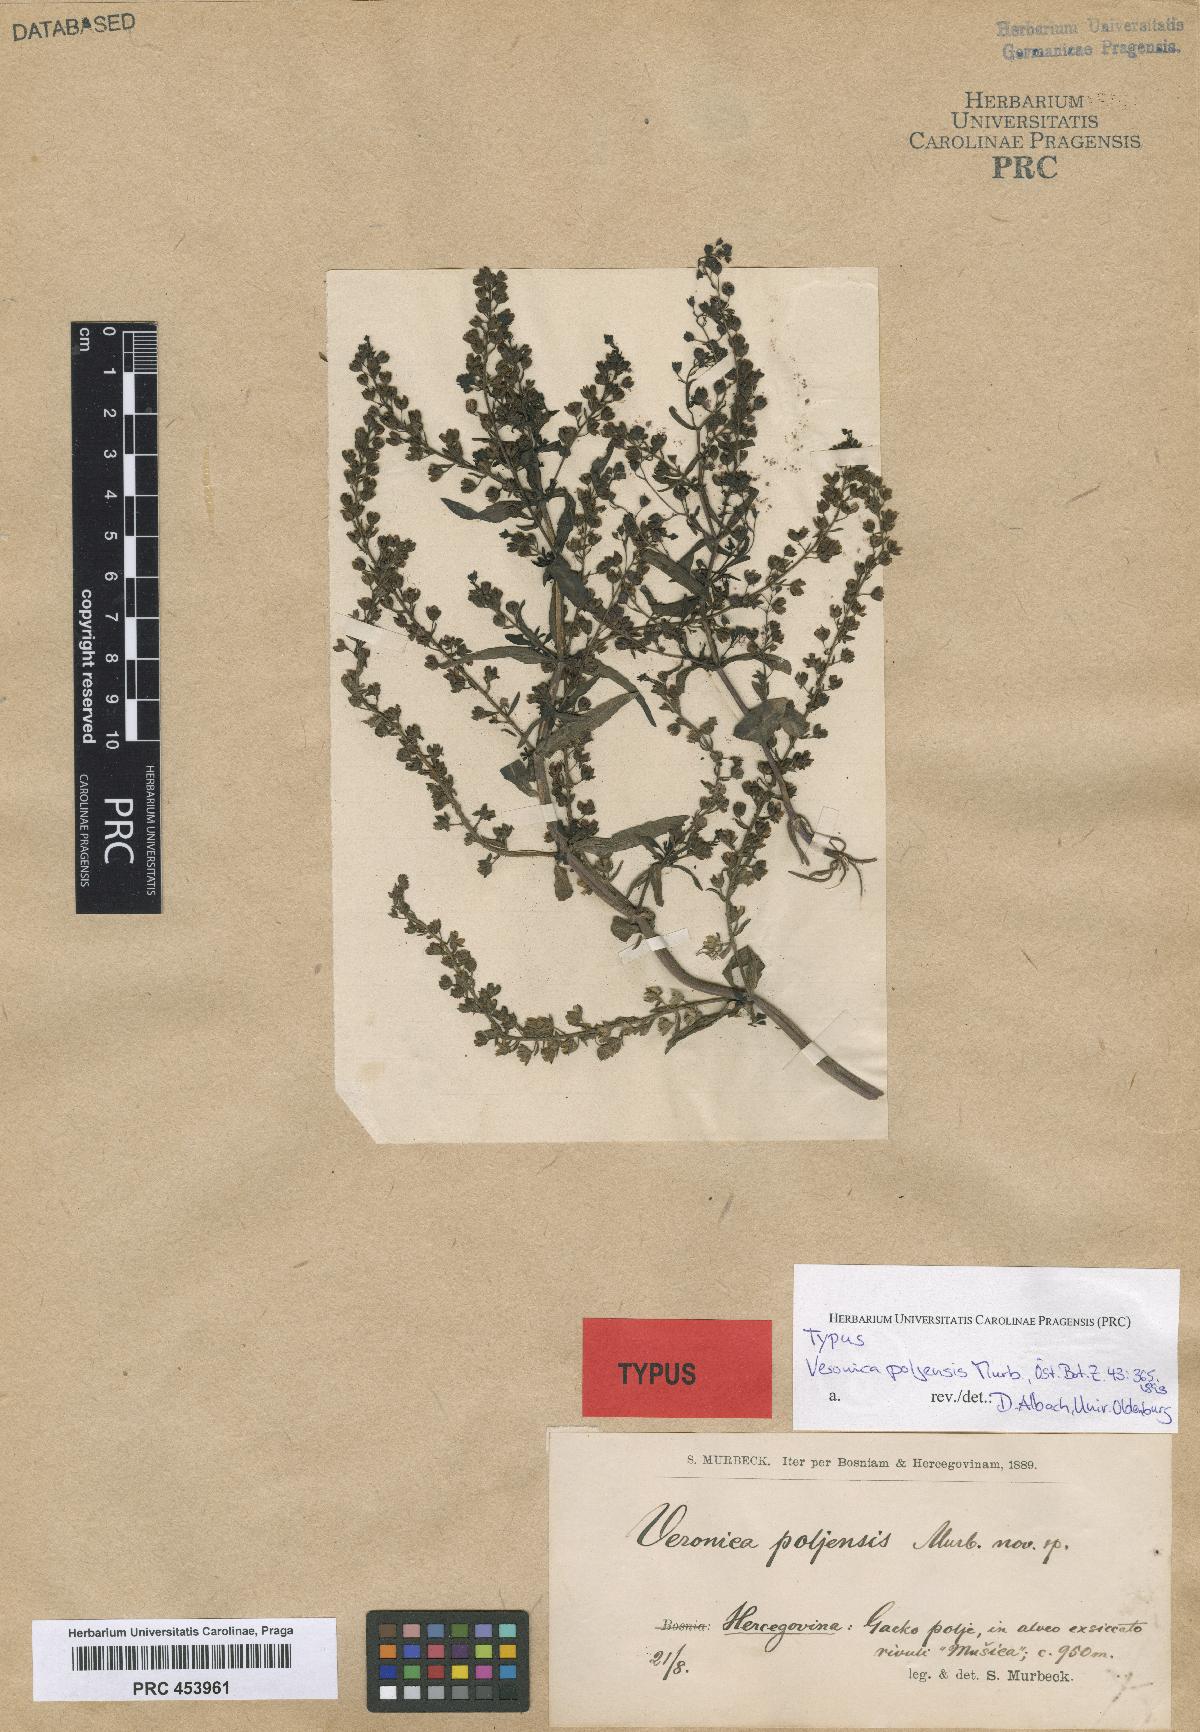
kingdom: Plantae
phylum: Tracheophyta
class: Magnoliopsida
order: Lamiales
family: Plantaginaceae
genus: Veronica
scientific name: Veronica poljensis
